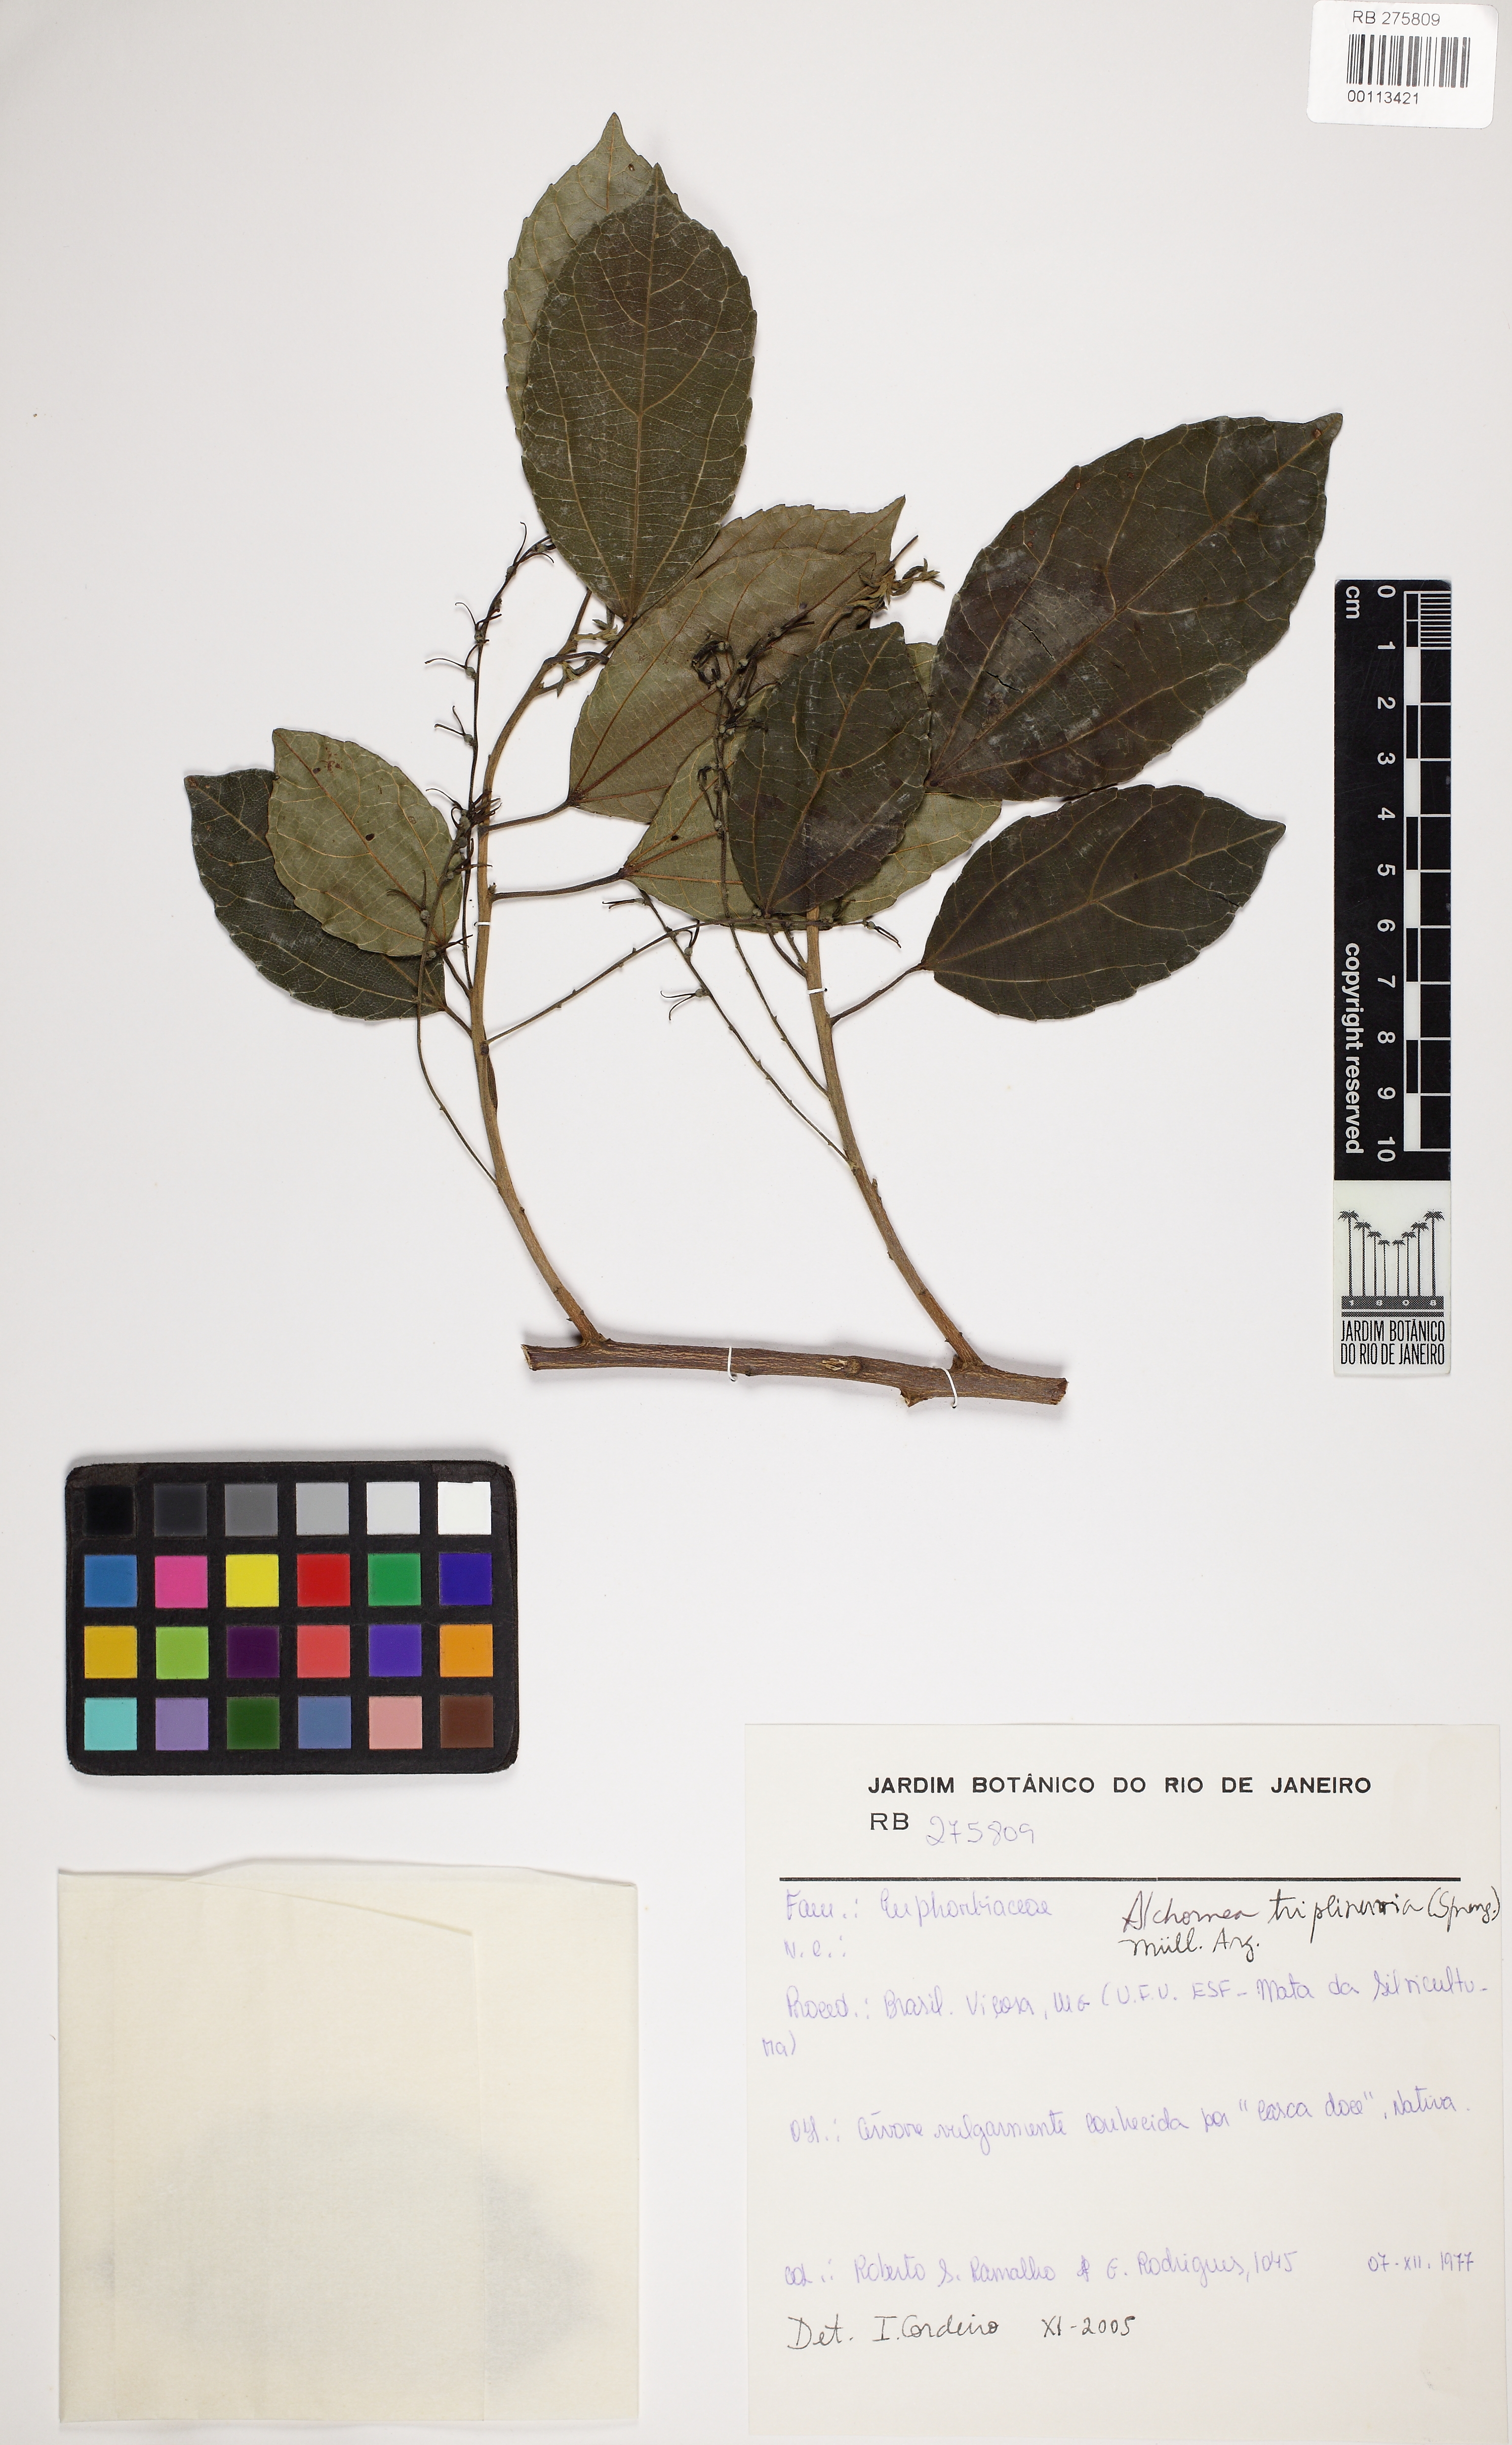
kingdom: Plantae
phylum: Tracheophyta
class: Magnoliopsida
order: Malpighiales
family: Euphorbiaceae
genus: Alchornea
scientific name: Alchornea triplinervia
